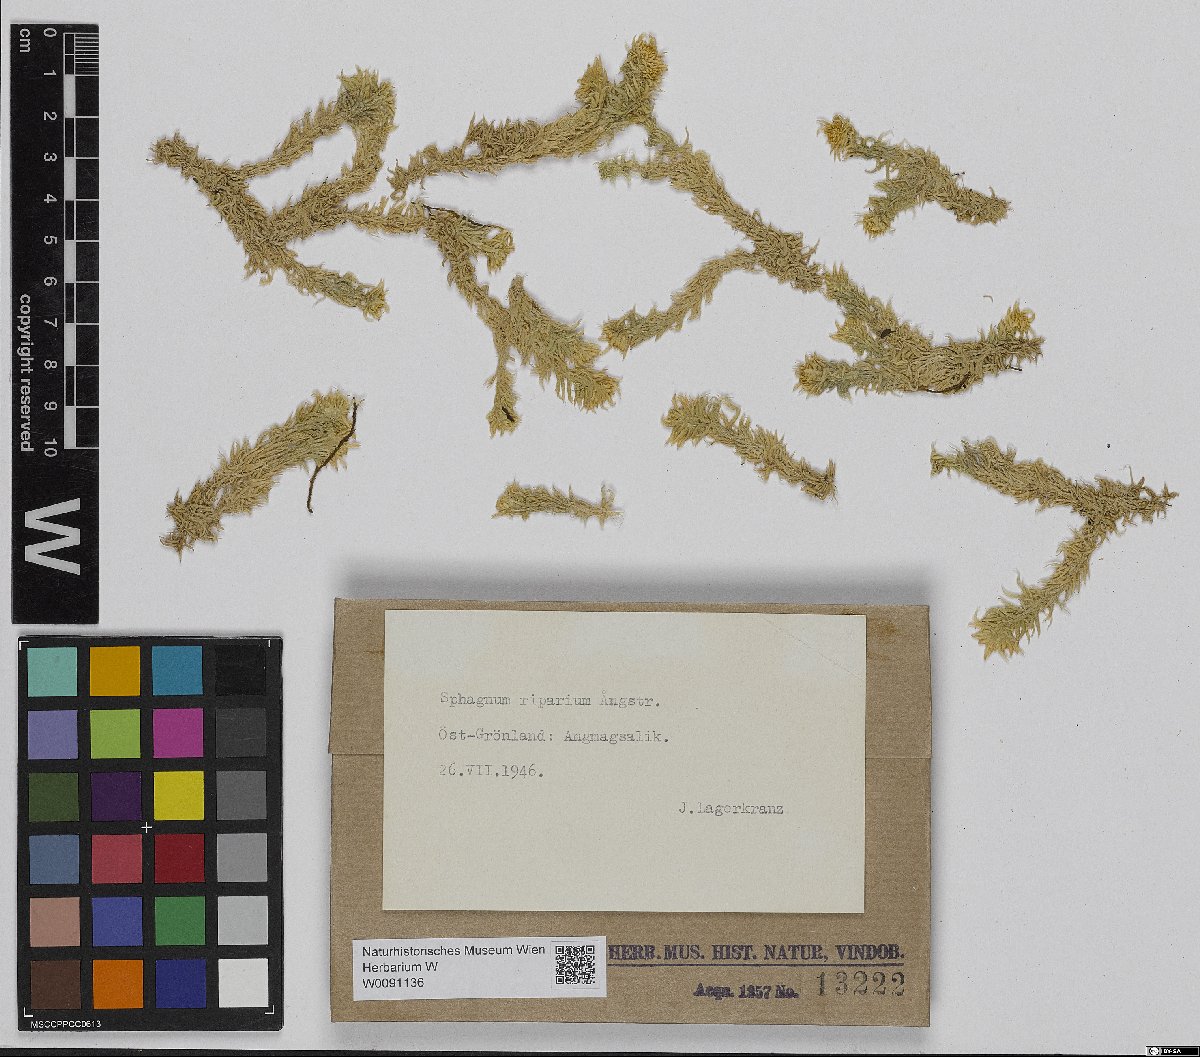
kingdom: Plantae
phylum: Bryophyta
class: Sphagnopsida
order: Sphagnales
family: Sphagnaceae
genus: Sphagnum
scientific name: Sphagnum riparium
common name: Streamside peat moss
